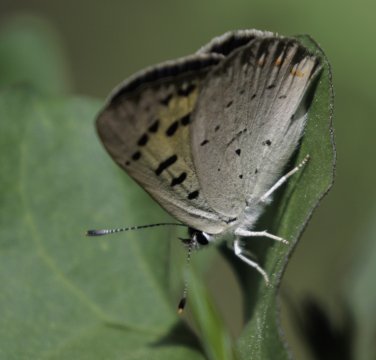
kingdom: Animalia
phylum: Arthropoda
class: Insecta
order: Lepidoptera
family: Lycaenidae
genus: Lycaena
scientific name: Lycaena nivalis
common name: Lilac-bordered Copper
